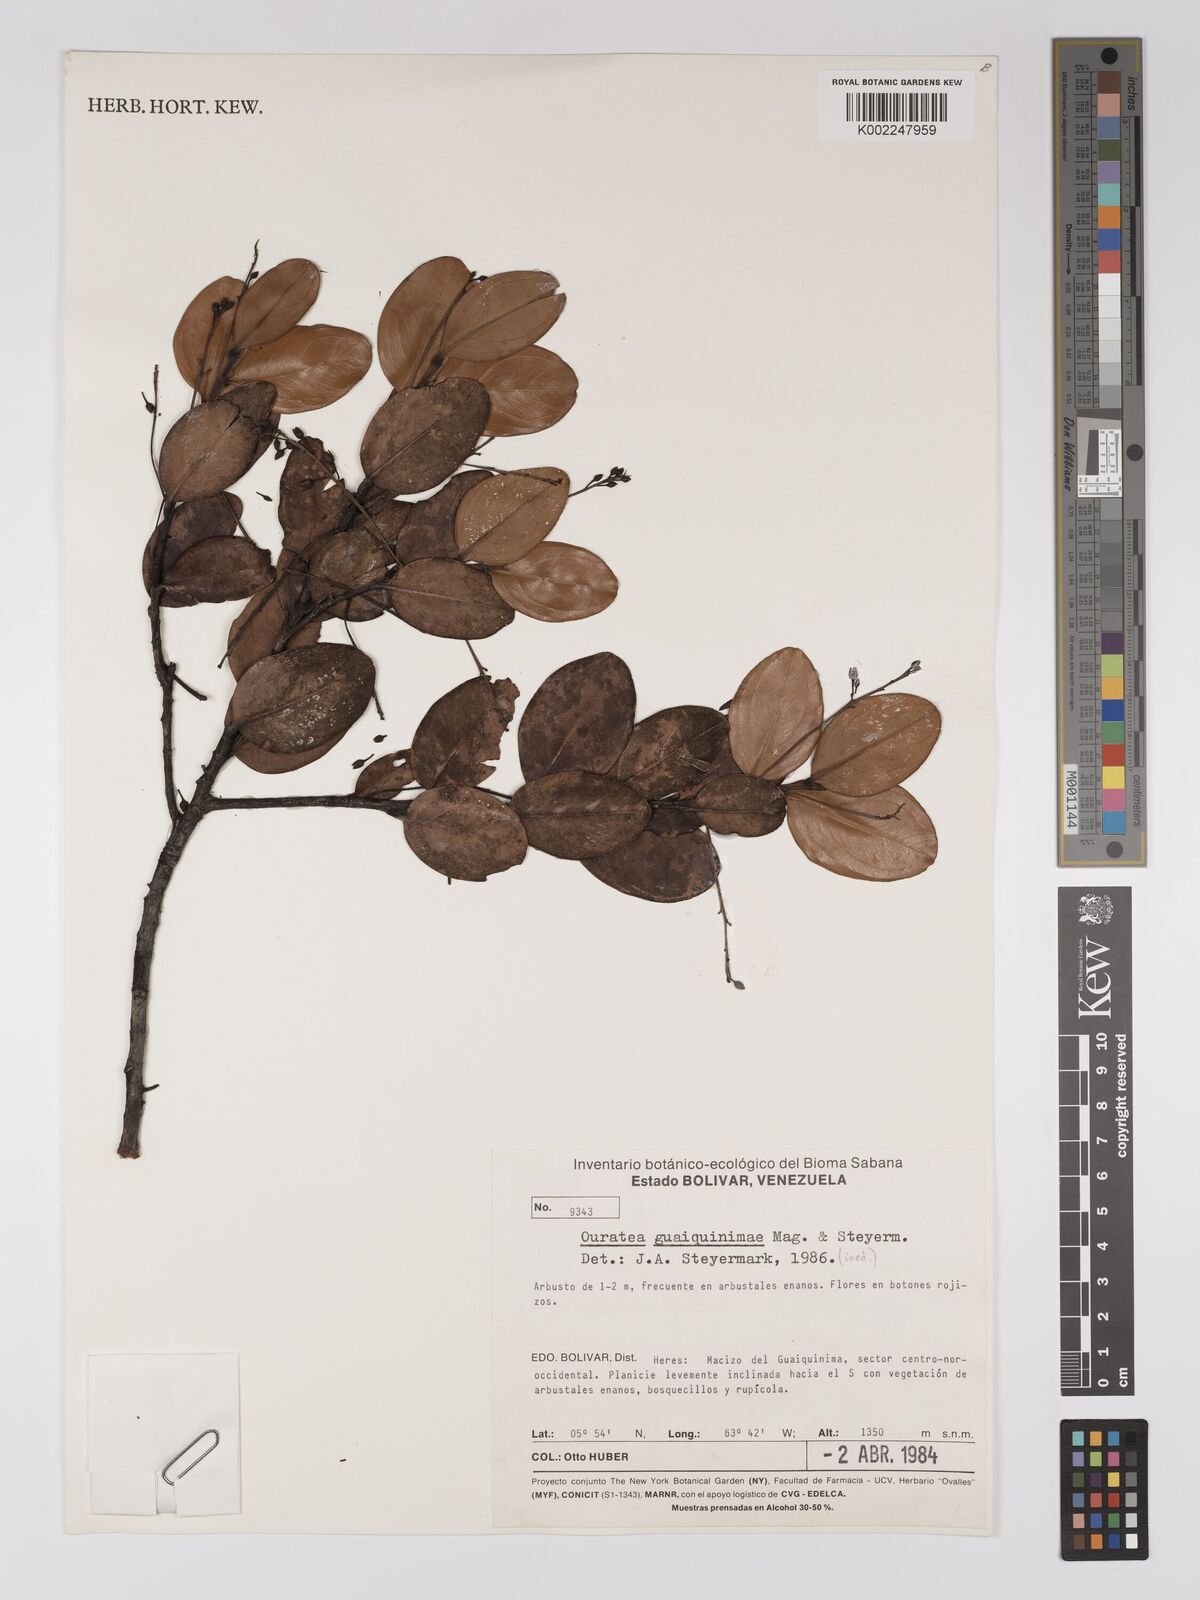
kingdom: Plantae
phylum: Tracheophyta
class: Magnoliopsida
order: Malpighiales
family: Ochnaceae
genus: Ouratea
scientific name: Ouratea guaiquinimensis
